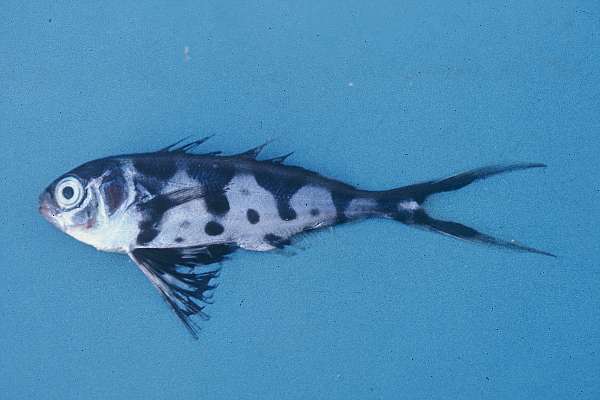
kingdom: Animalia
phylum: Chordata
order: Perciformes
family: Nomeidae
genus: Nomeus
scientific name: Nomeus gronovii
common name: Man-of-war fish
